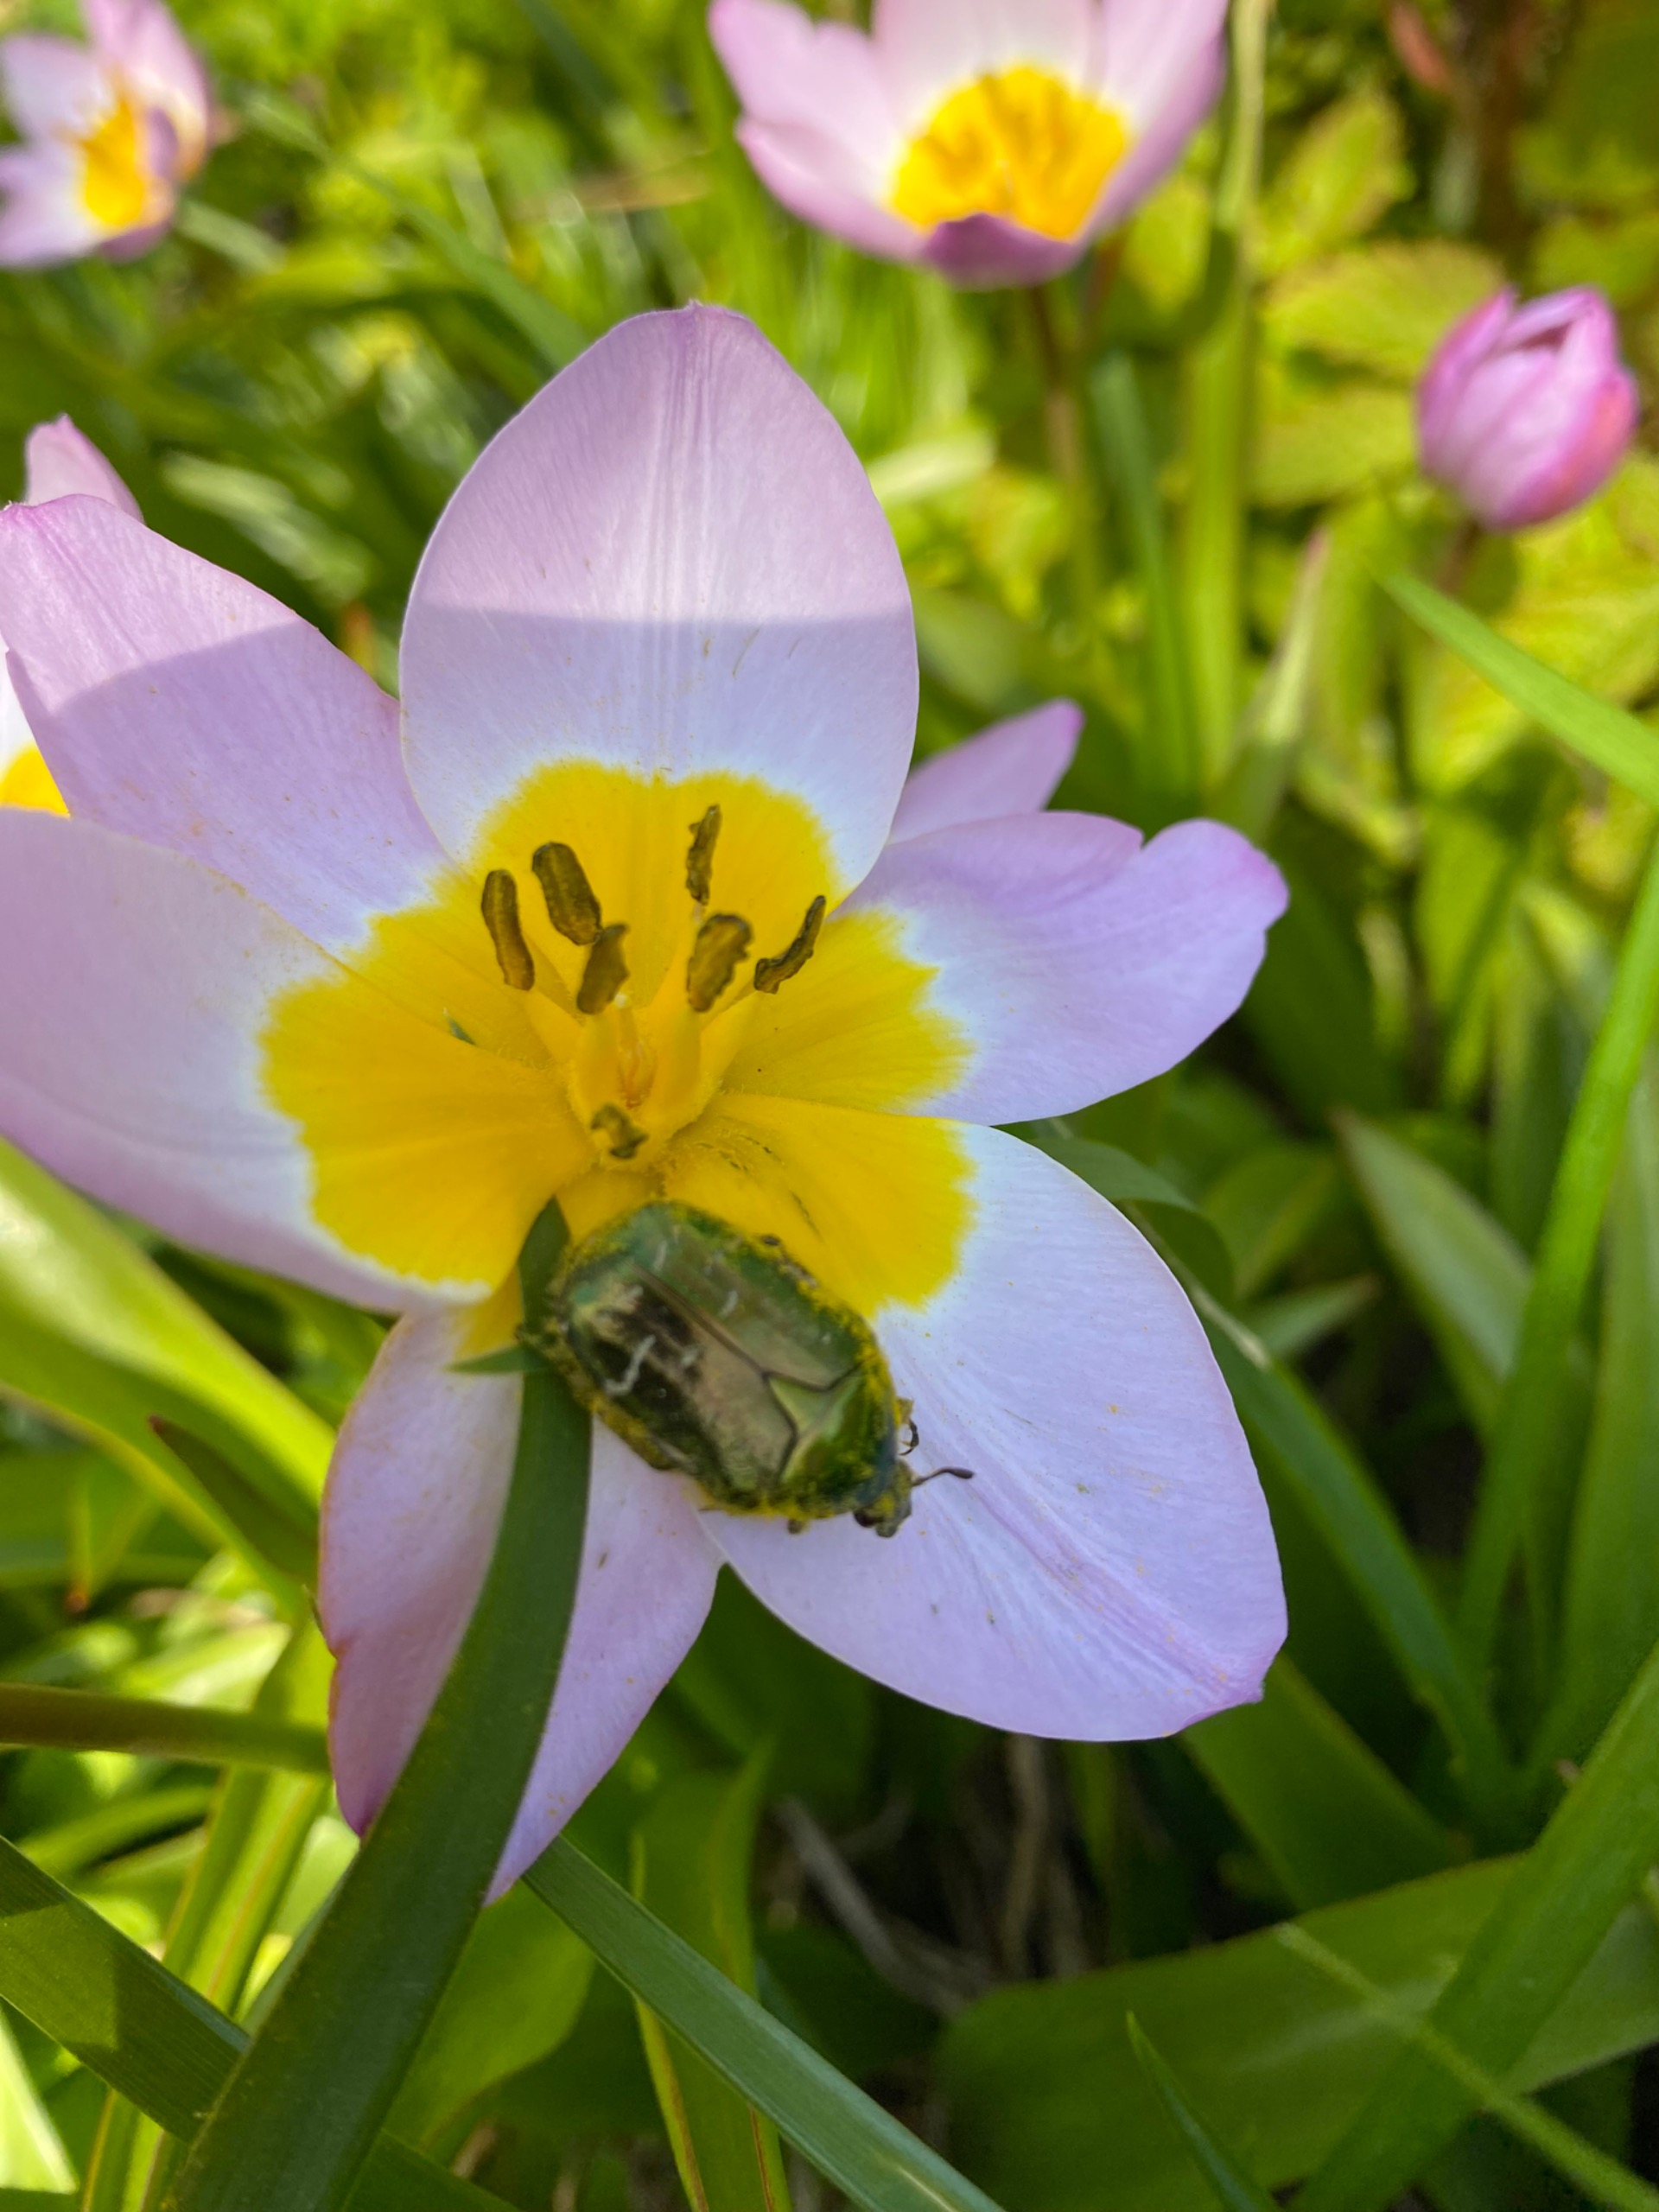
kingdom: Animalia
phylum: Arthropoda
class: Insecta
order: Coleoptera
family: Scarabaeidae
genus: Cetonia
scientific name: Cetonia aurata
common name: Grøn guldbasse
